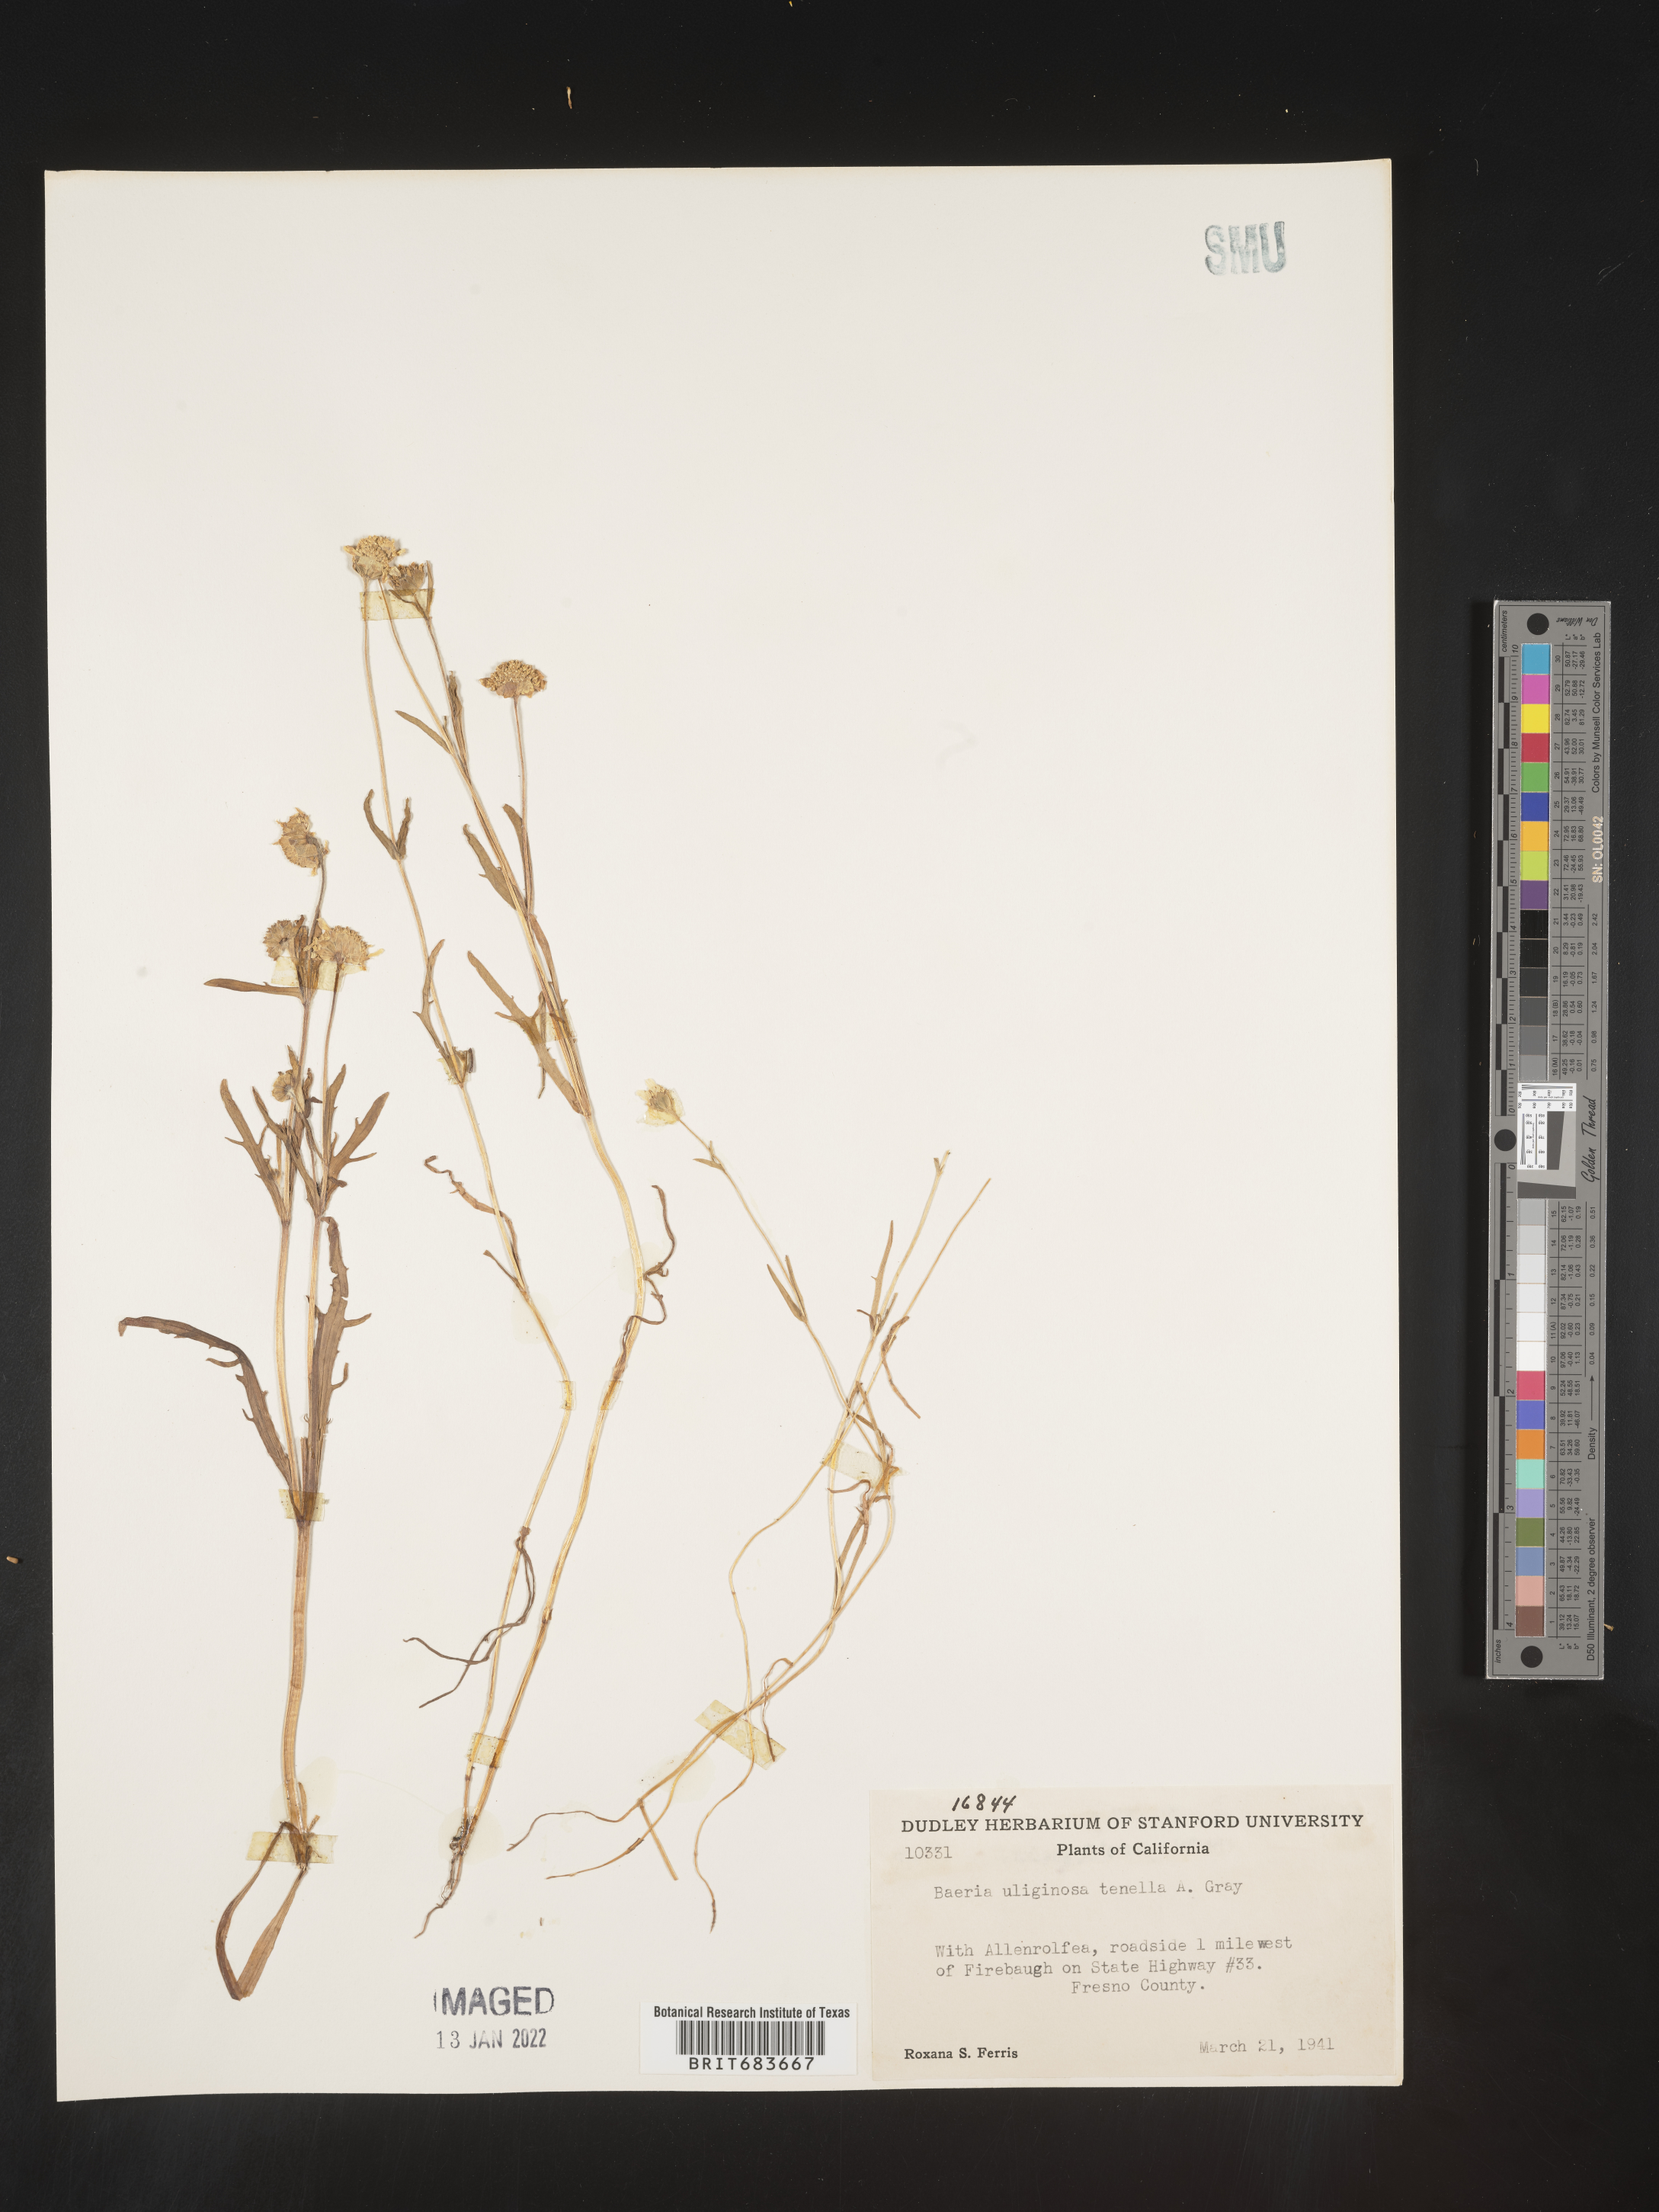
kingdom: Plantae
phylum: Tracheophyta
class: Magnoliopsida
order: Asterales
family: Asteraceae
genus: Lasthenia
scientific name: Lasthenia
